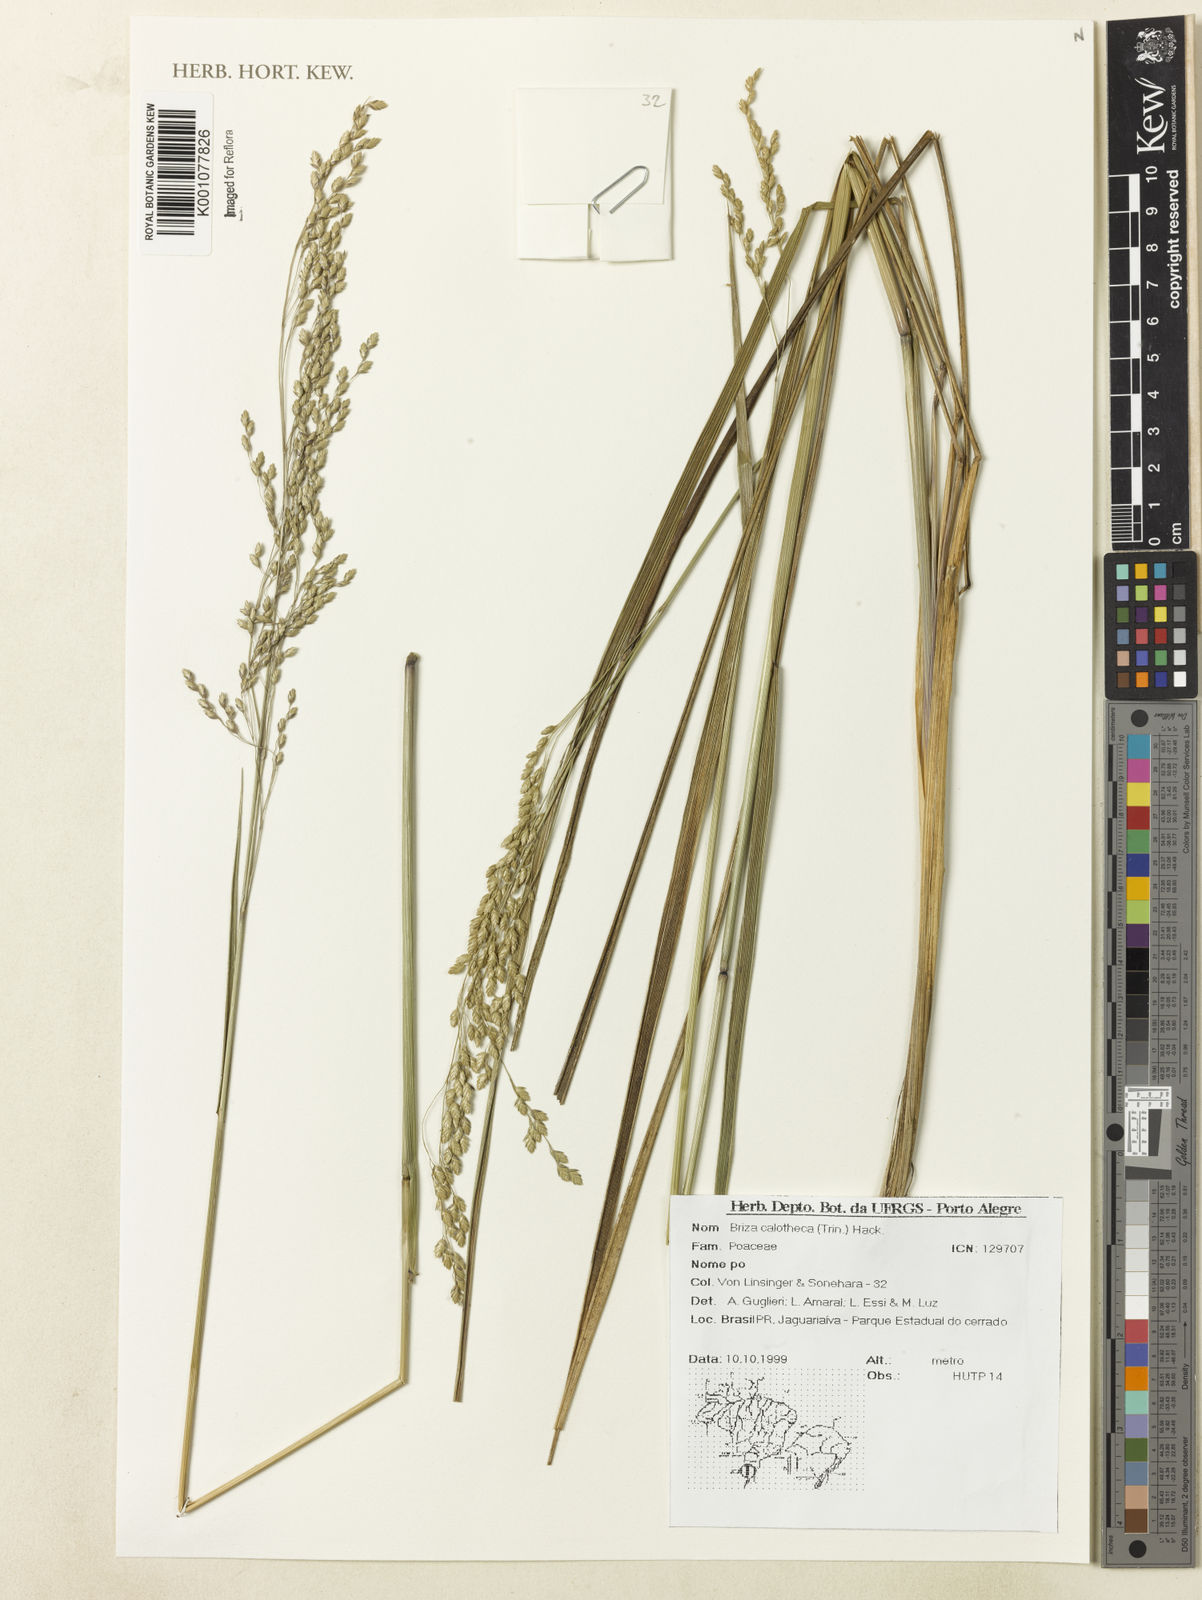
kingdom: Plantae
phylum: Tracheophyta
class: Liliopsida
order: Poales
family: Poaceae
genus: Poidium
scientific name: Poidium calotheca
